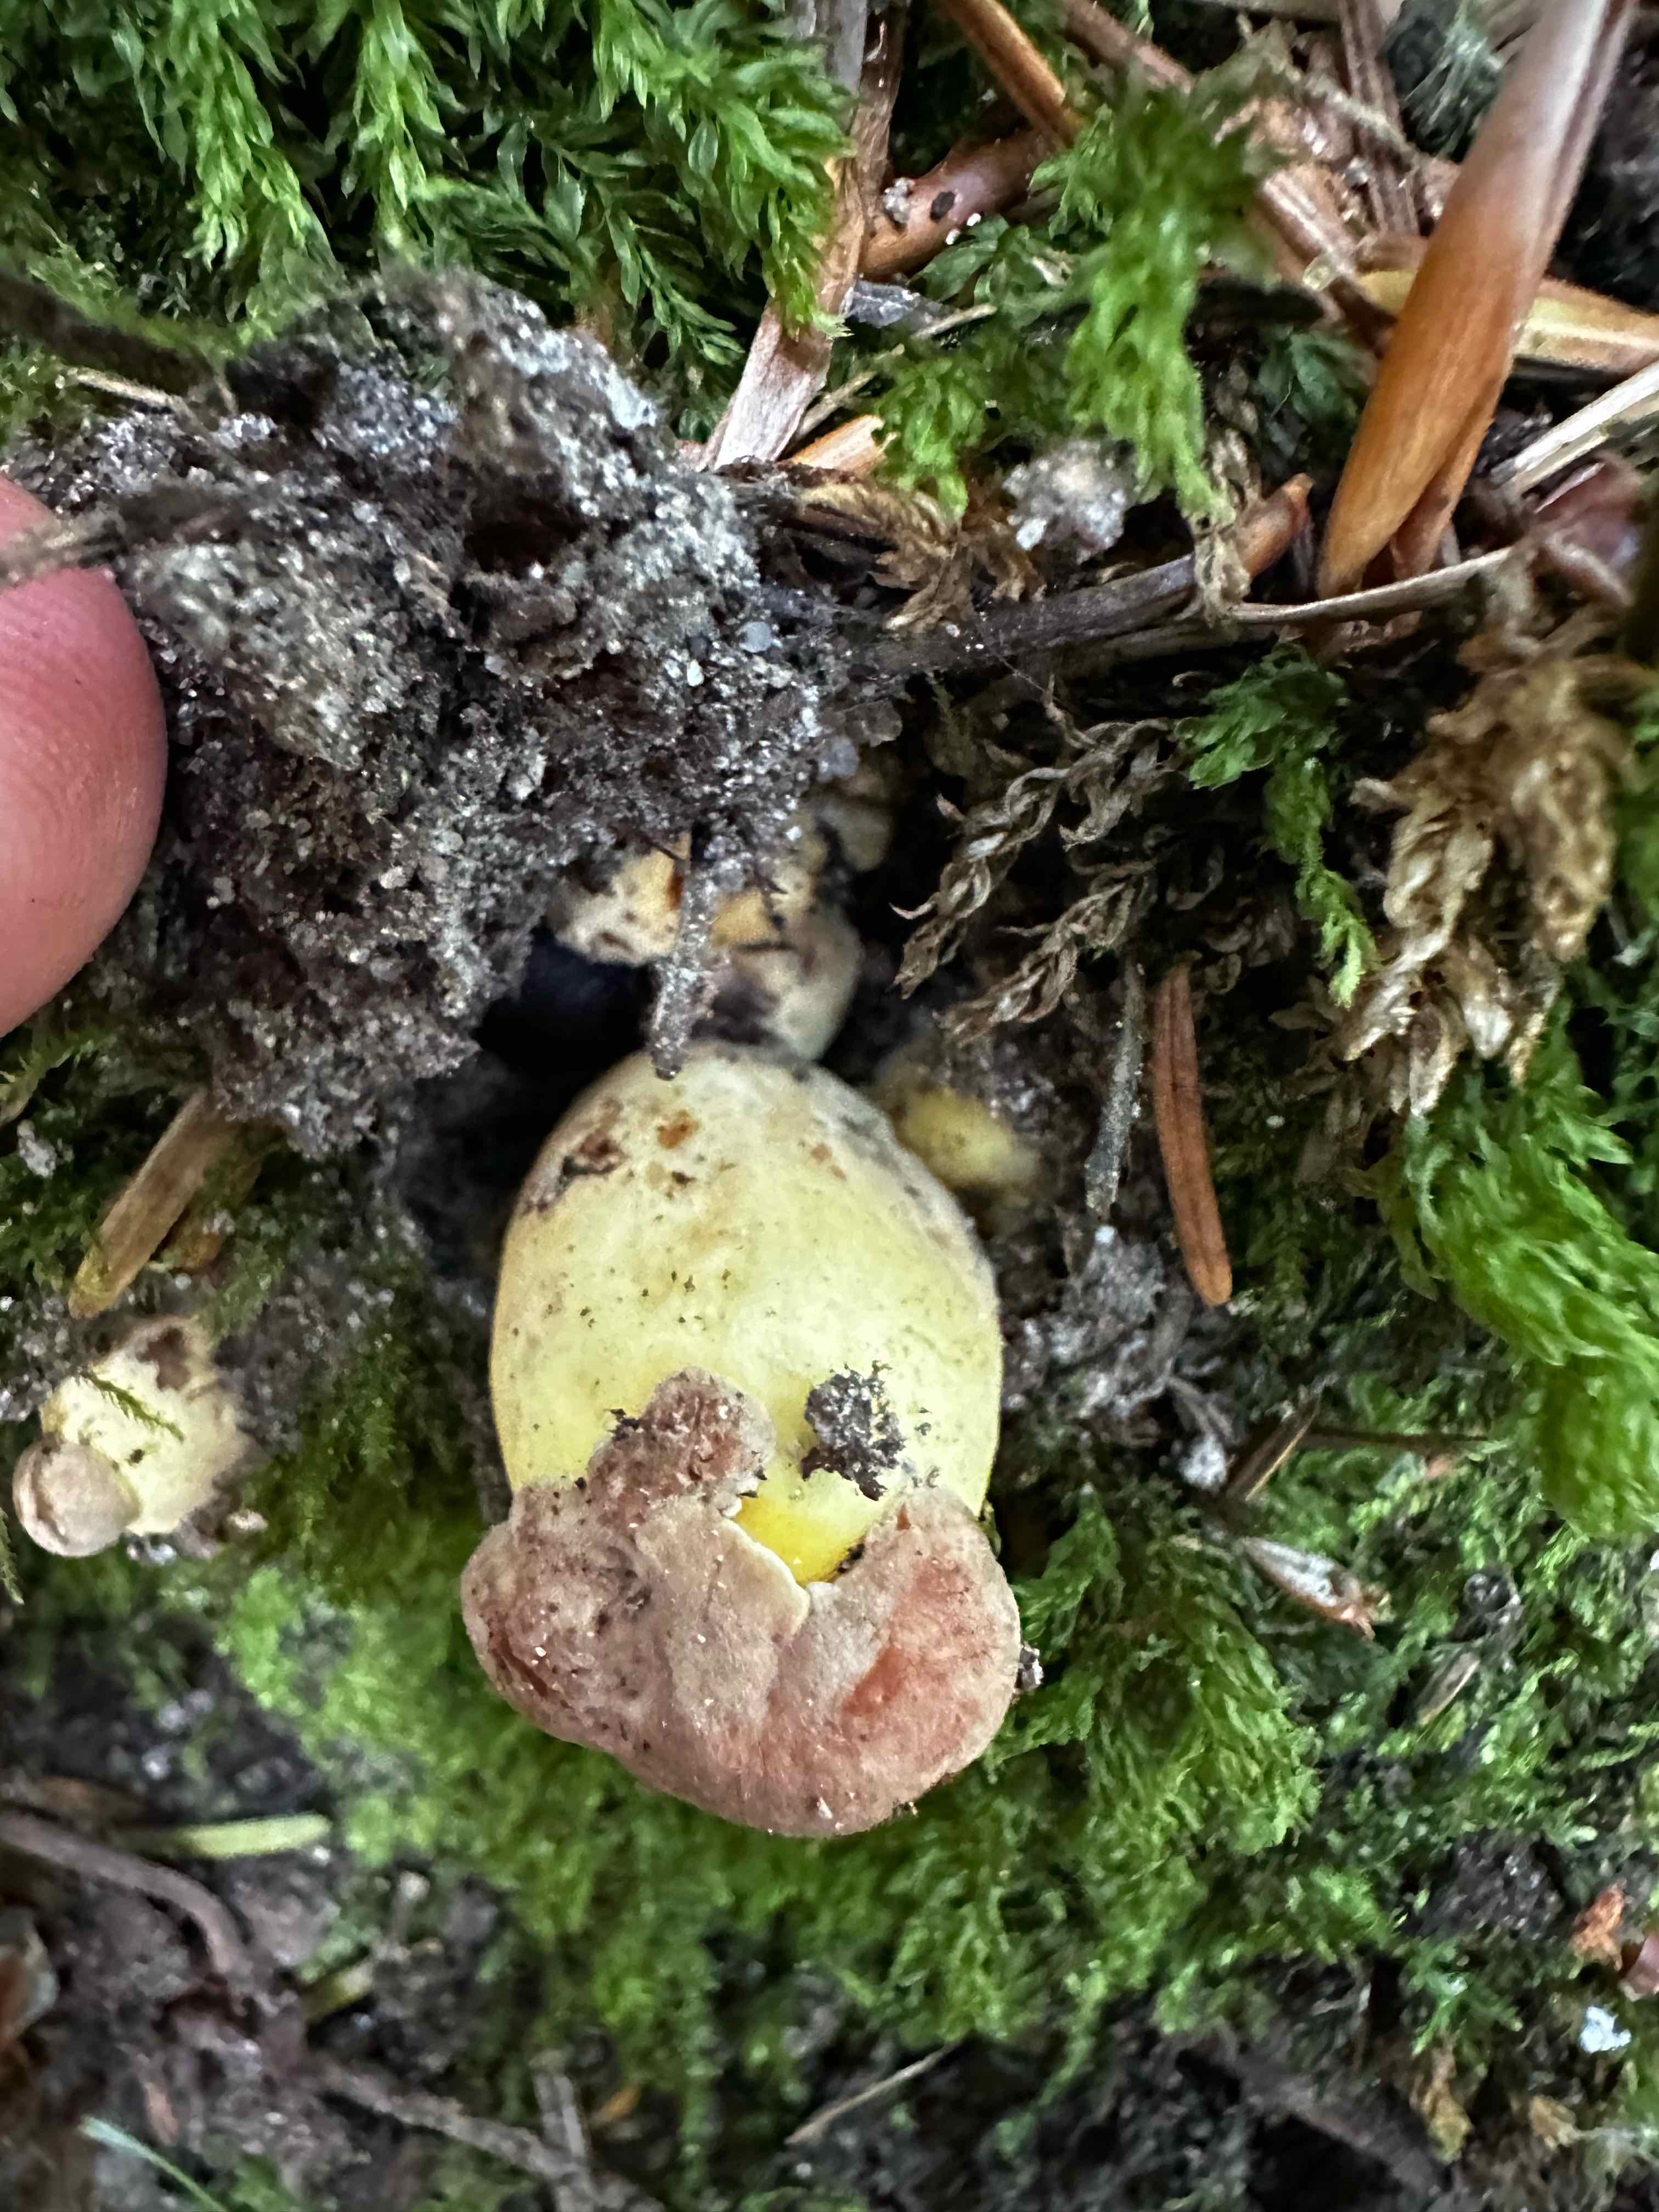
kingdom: Fungi
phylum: Basidiomycota
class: Agaricomycetes
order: Boletales
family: Boletaceae
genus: Butyriboletus
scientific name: Butyriboletus appendiculatus
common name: tenstokket rørhat
